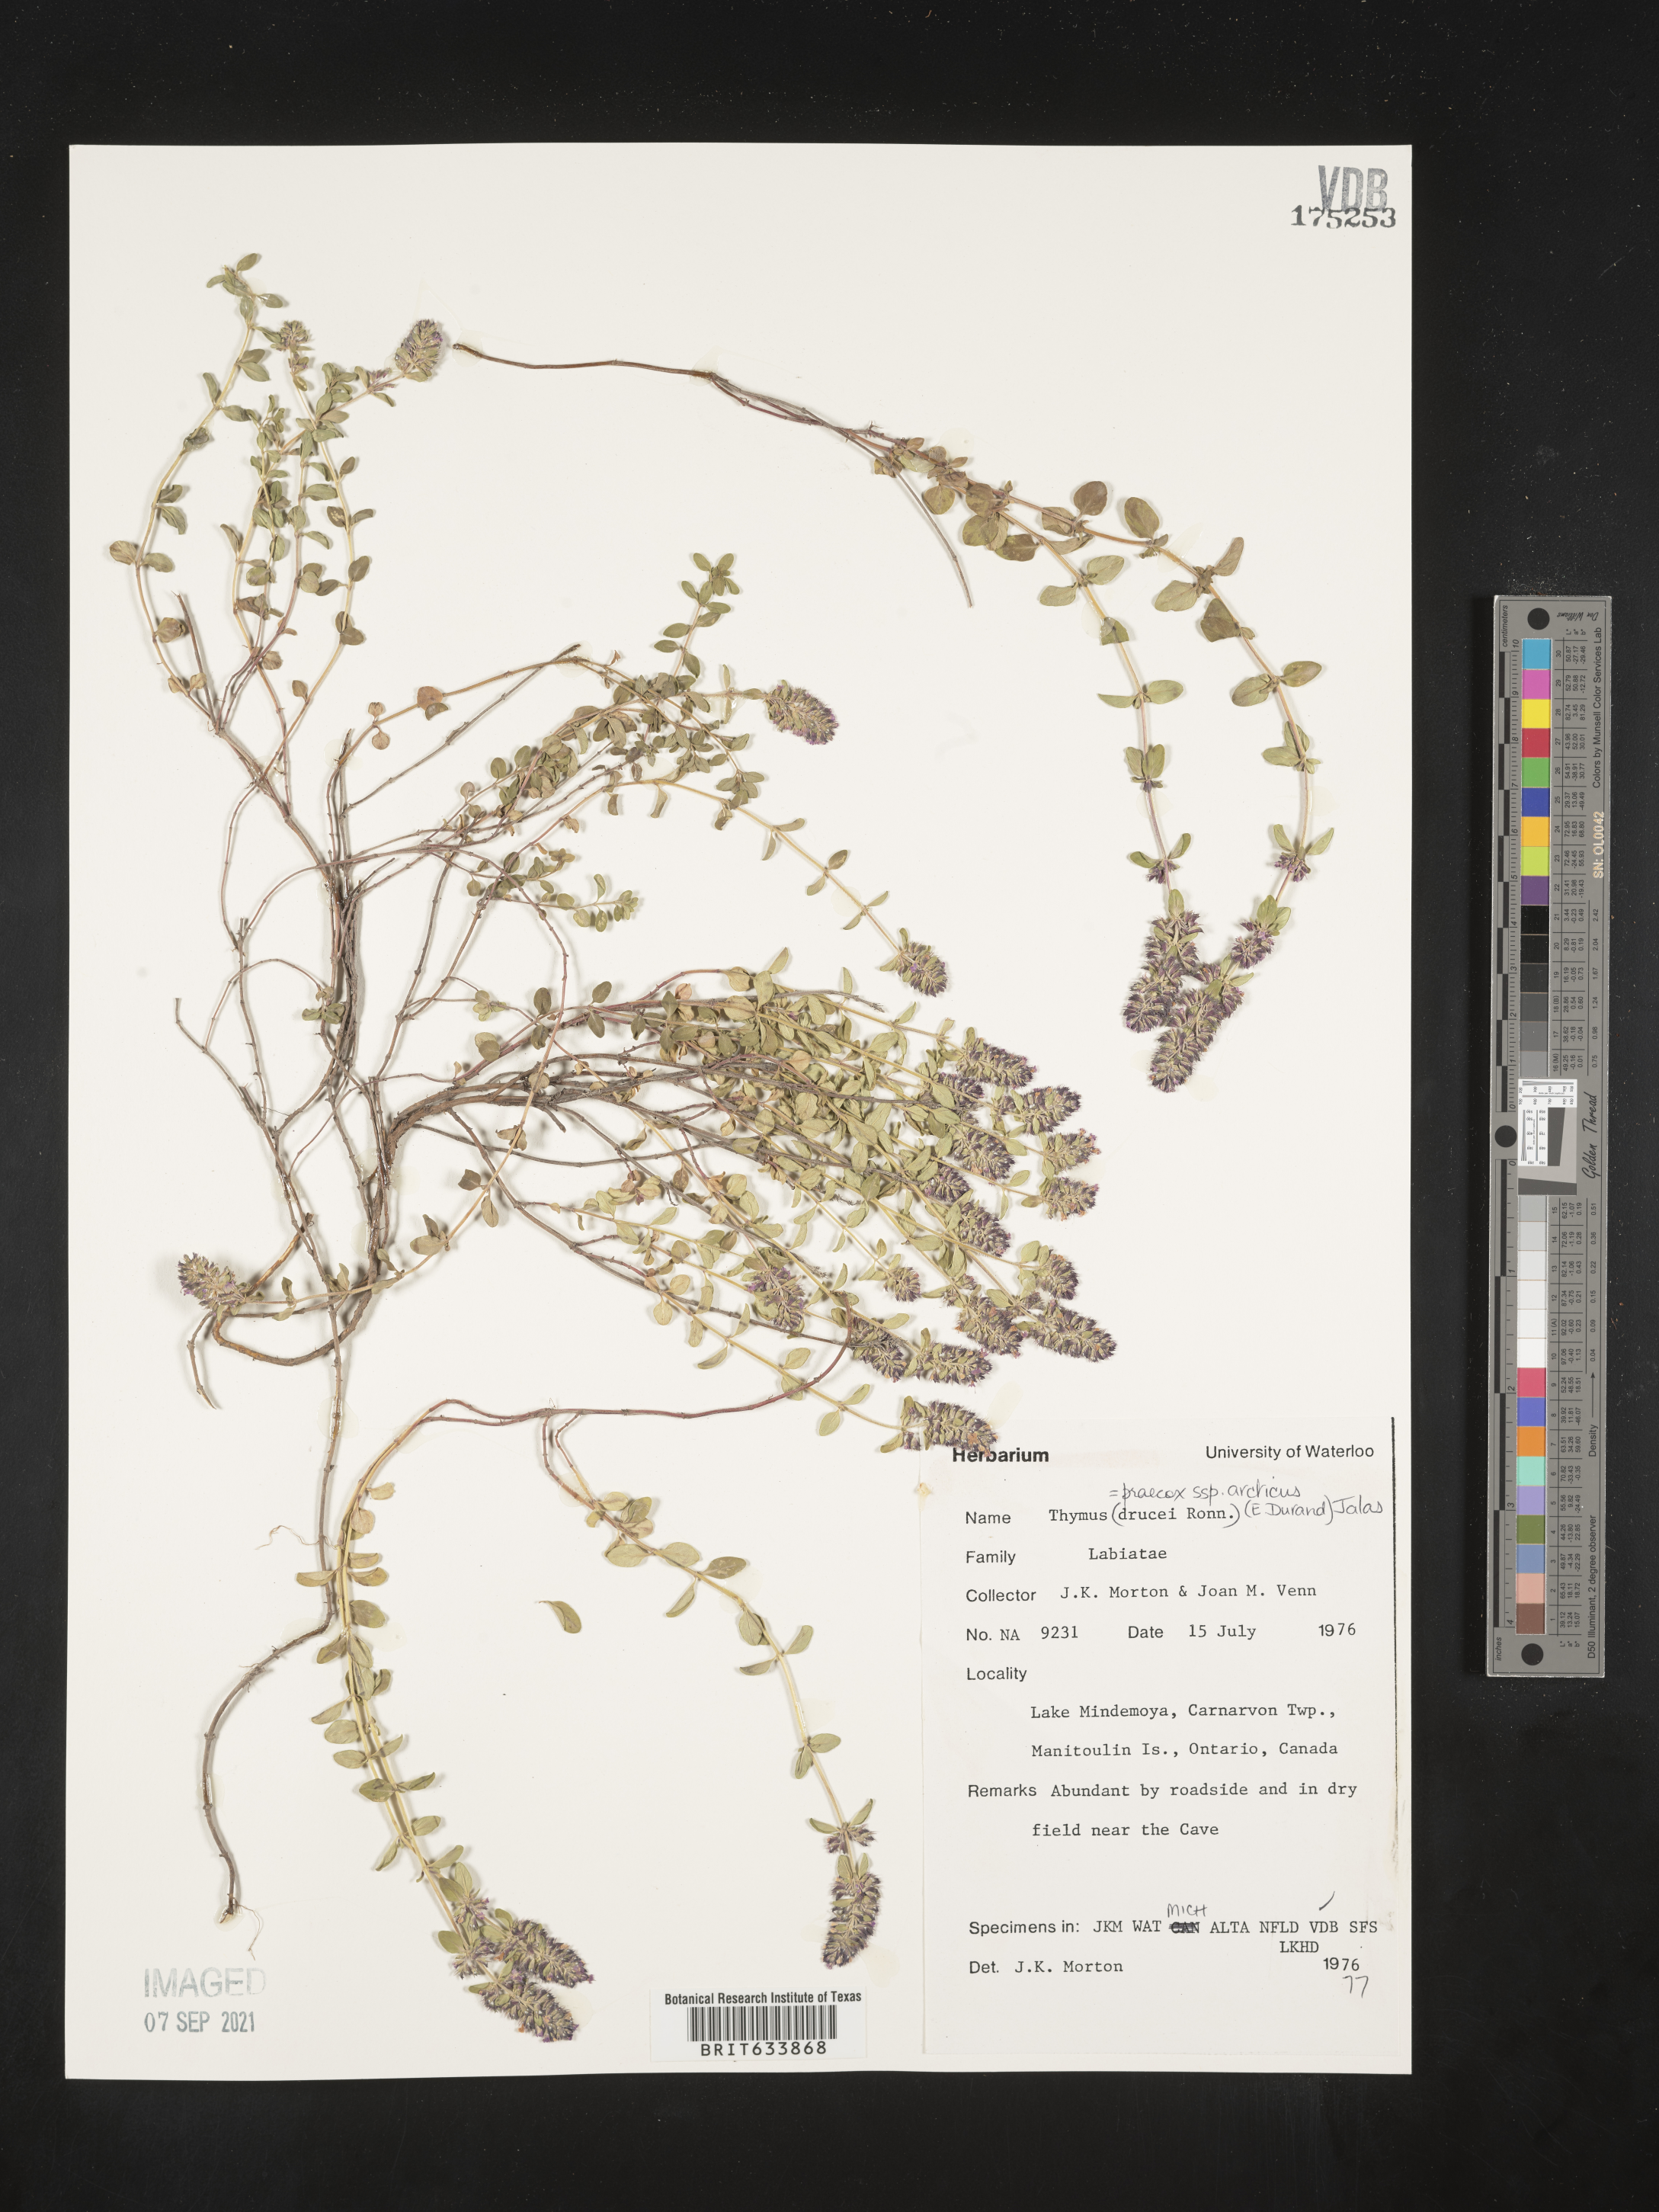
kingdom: Plantae
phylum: Tracheophyta
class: Magnoliopsida
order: Lamiales
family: Lamiaceae
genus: Thymus
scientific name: Thymus
